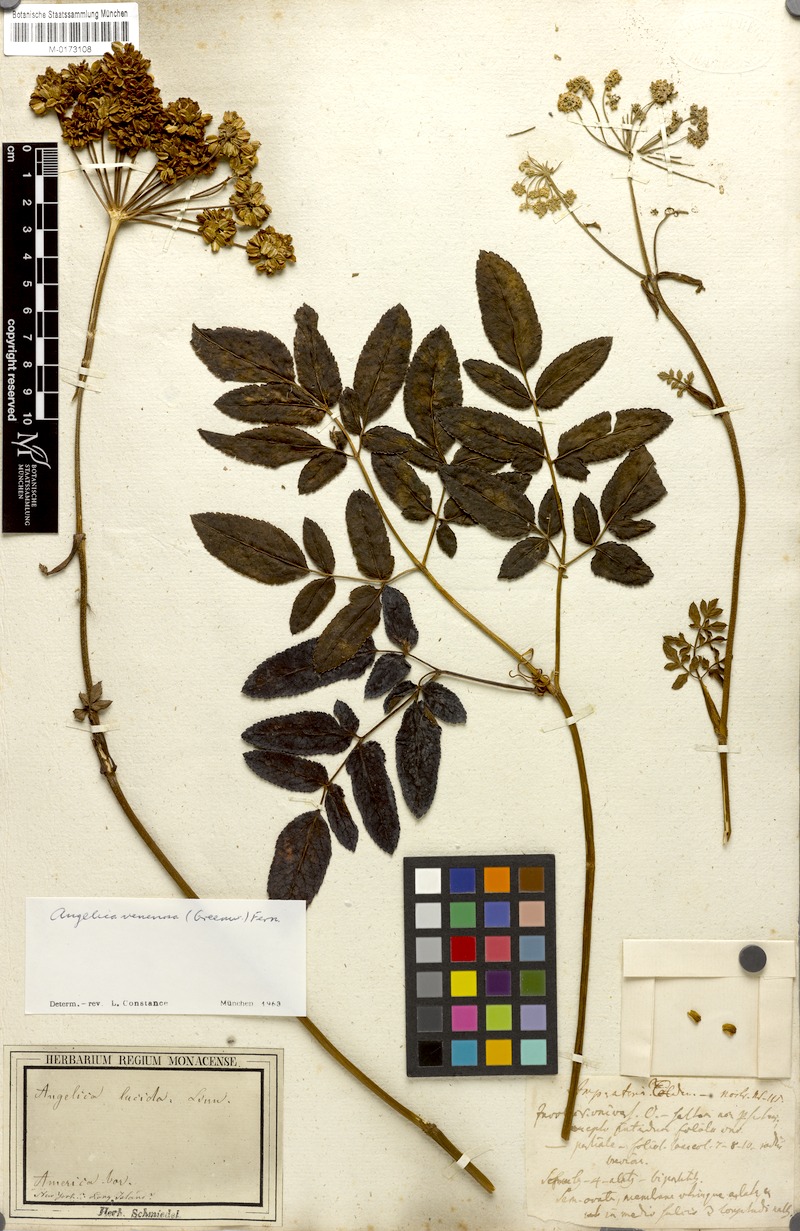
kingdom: Plantae
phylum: Tracheophyta
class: Magnoliopsida
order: Apiales
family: Apiaceae
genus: Angelica
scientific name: Angelica venenosa
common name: Hairy angelica
